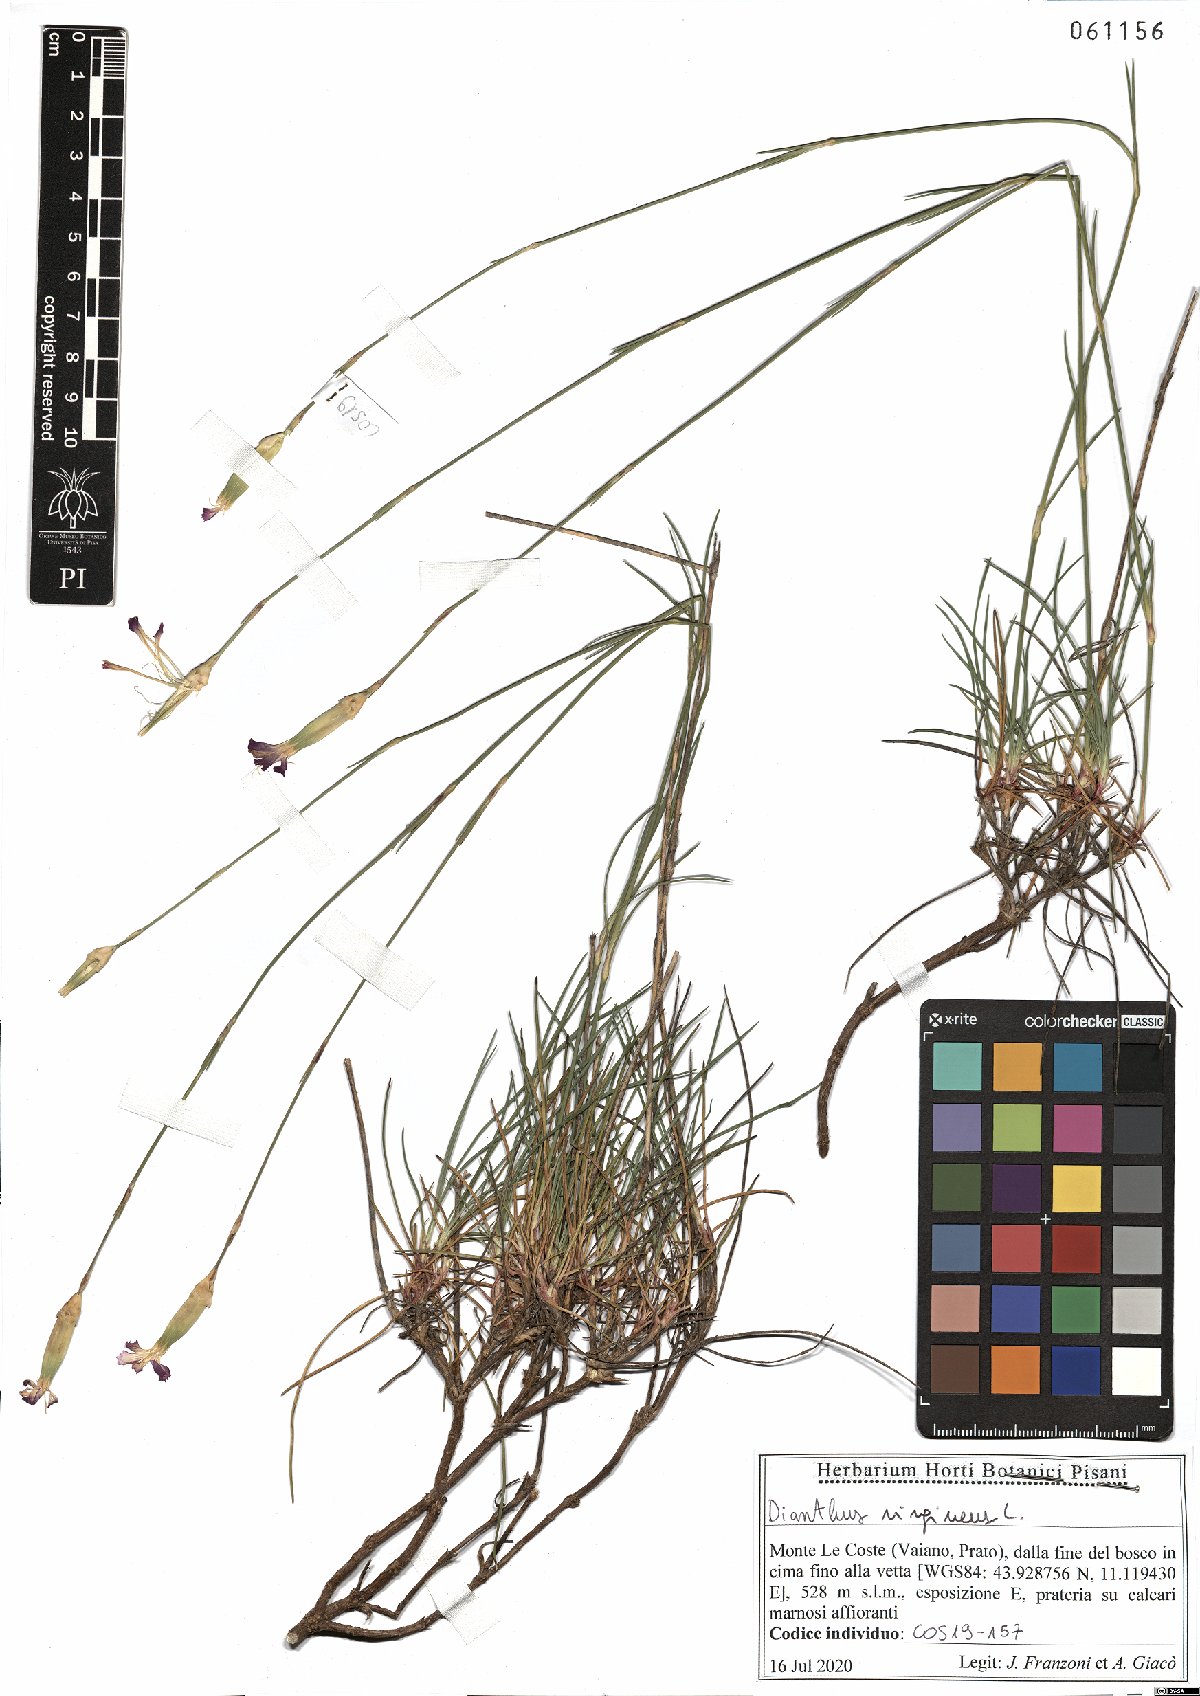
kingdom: Plantae
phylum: Tracheophyta
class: Magnoliopsida
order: Caryophyllales
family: Caryophyllaceae
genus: Dianthus
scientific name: Dianthus virgineus
